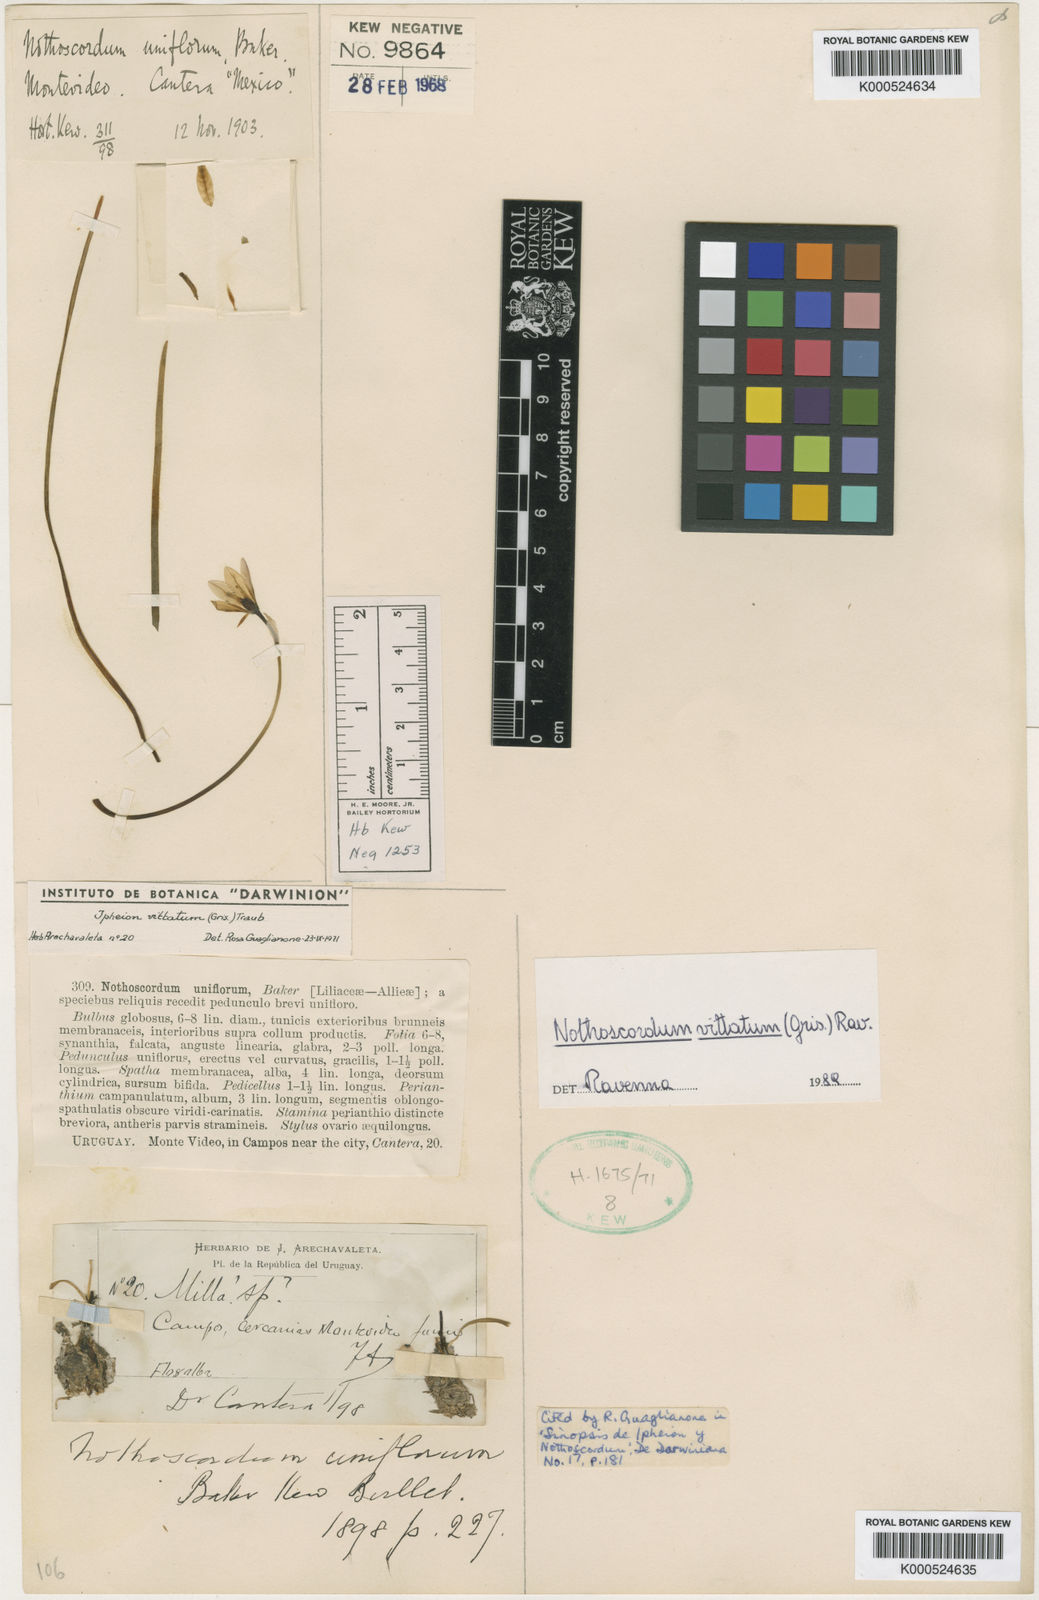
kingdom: Plantae
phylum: Tracheophyta
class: Liliopsida
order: Asparagales
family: Amaryllidaceae
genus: Nothoscordum
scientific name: Nothoscordum vittatum
